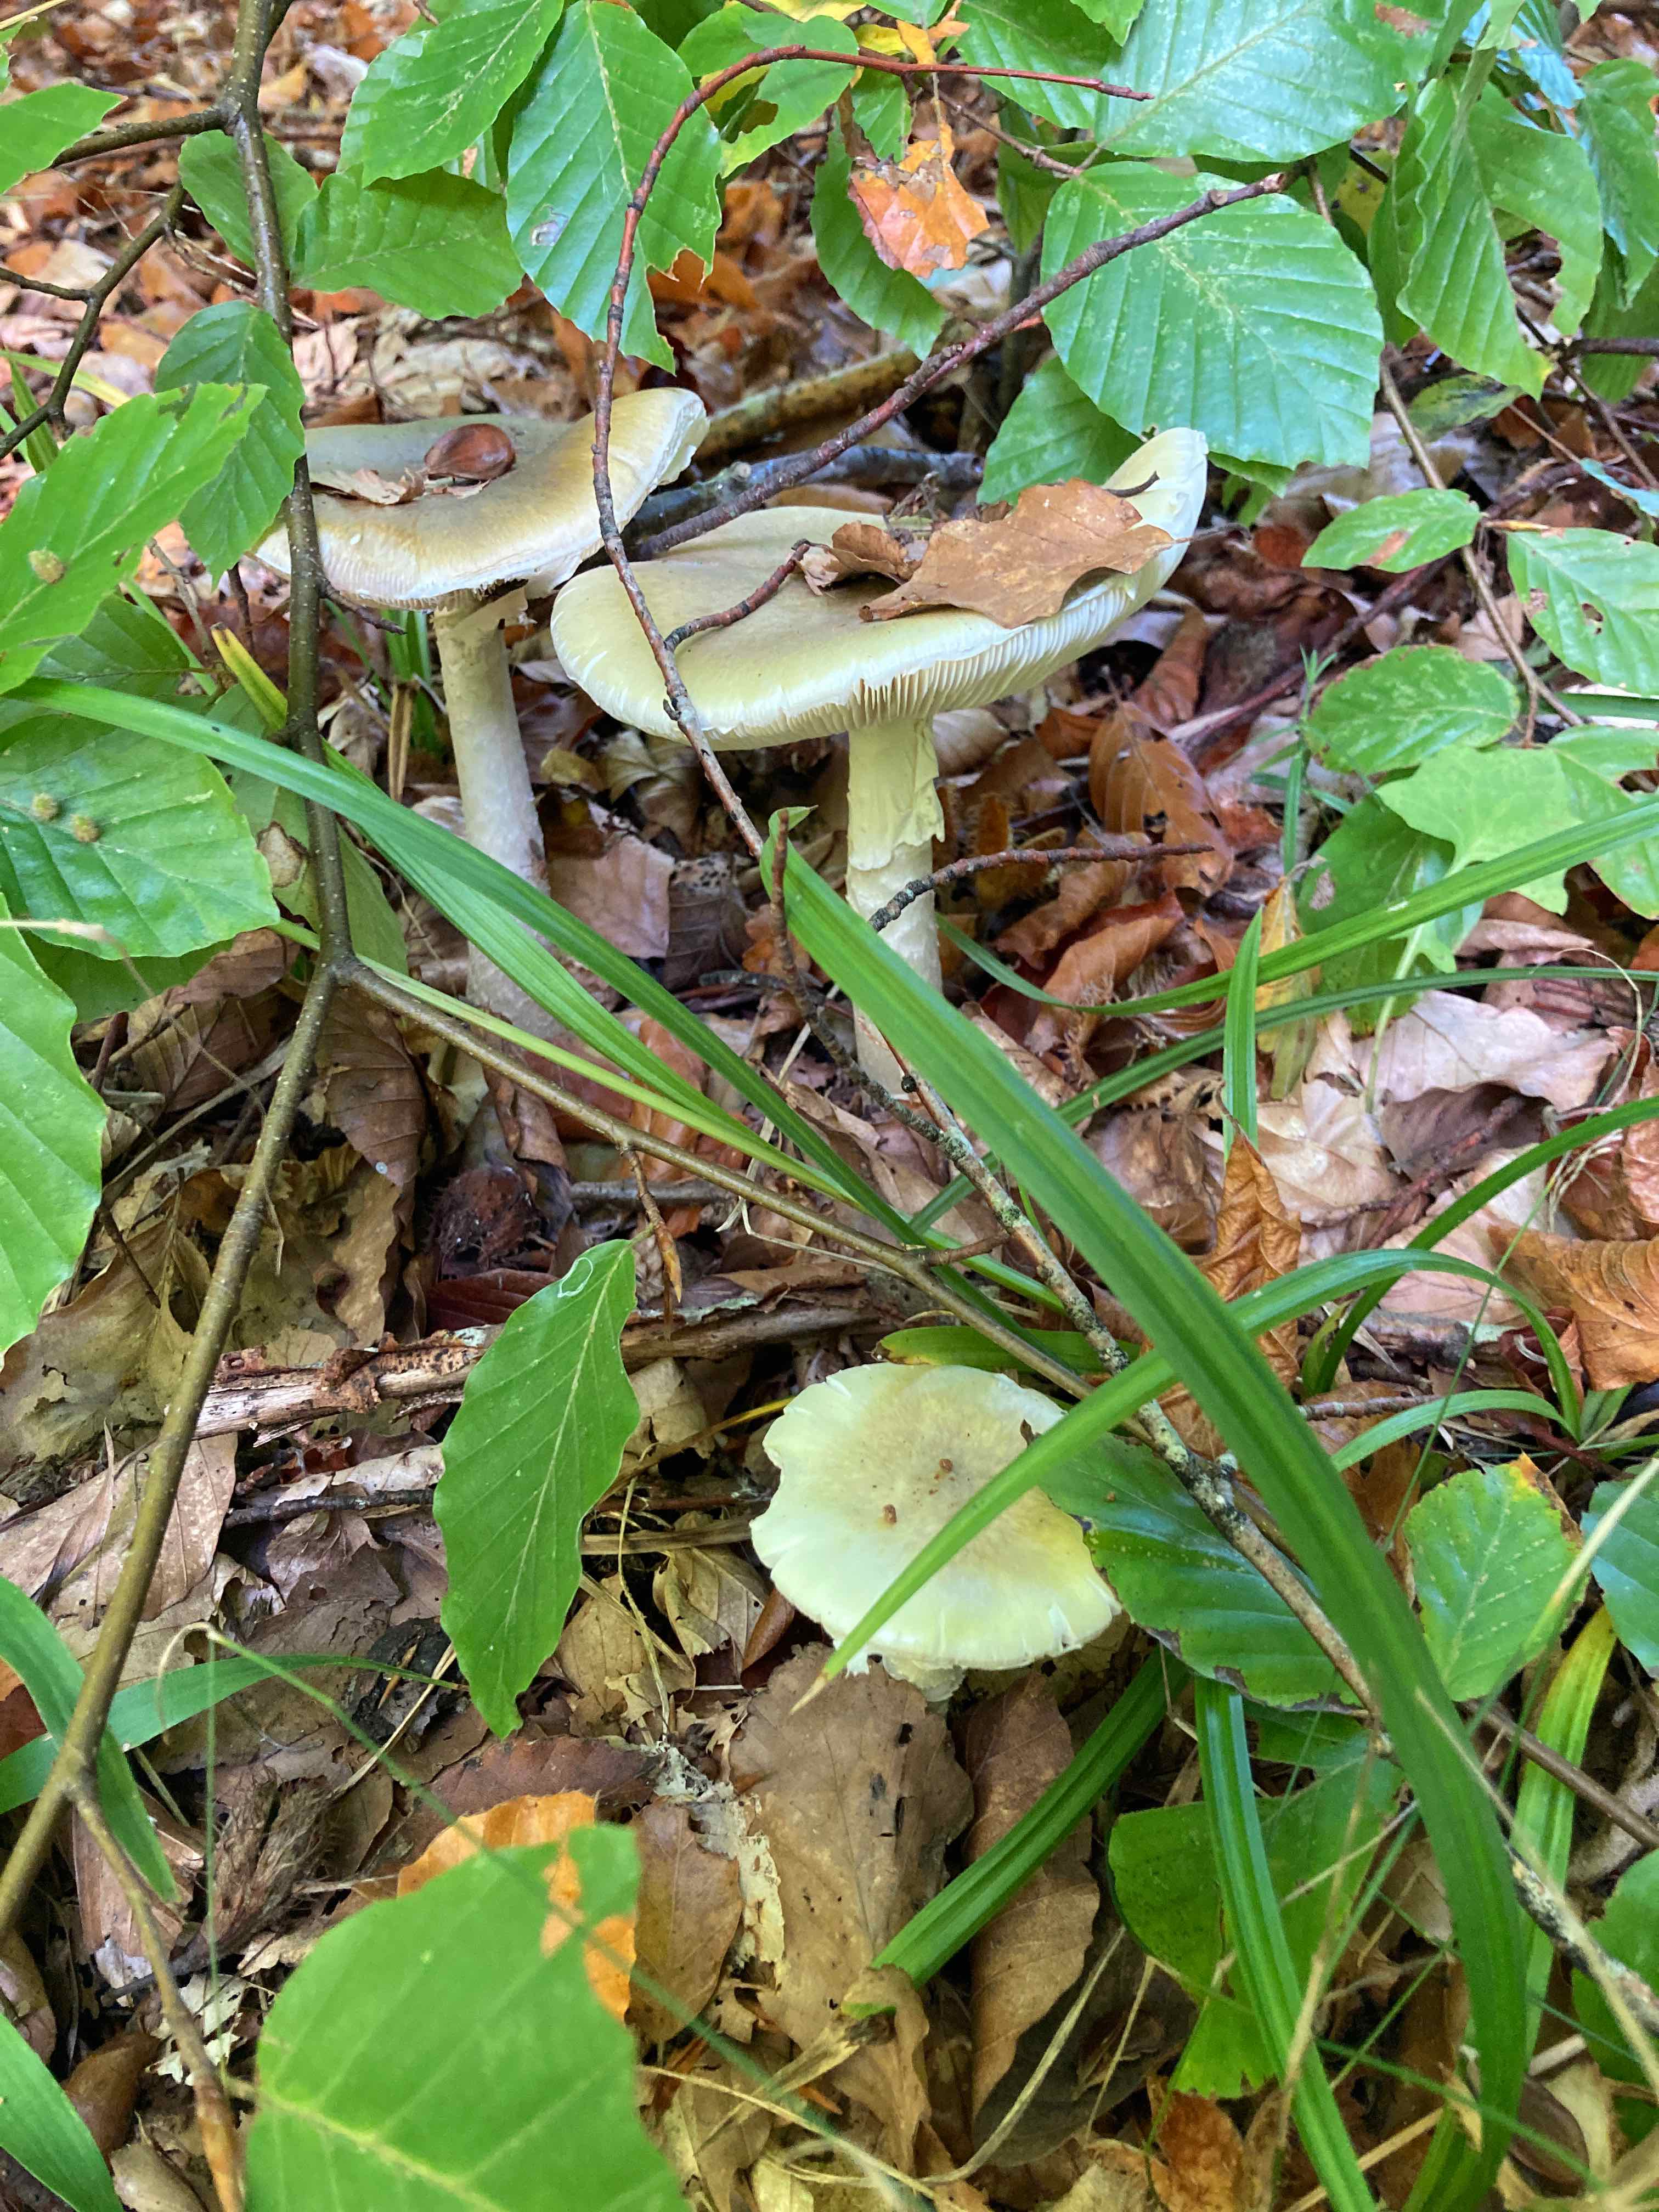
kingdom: Fungi
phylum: Basidiomycota
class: Agaricomycetes
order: Agaricales
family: Amanitaceae
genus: Amanita
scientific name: Amanita phalloides
